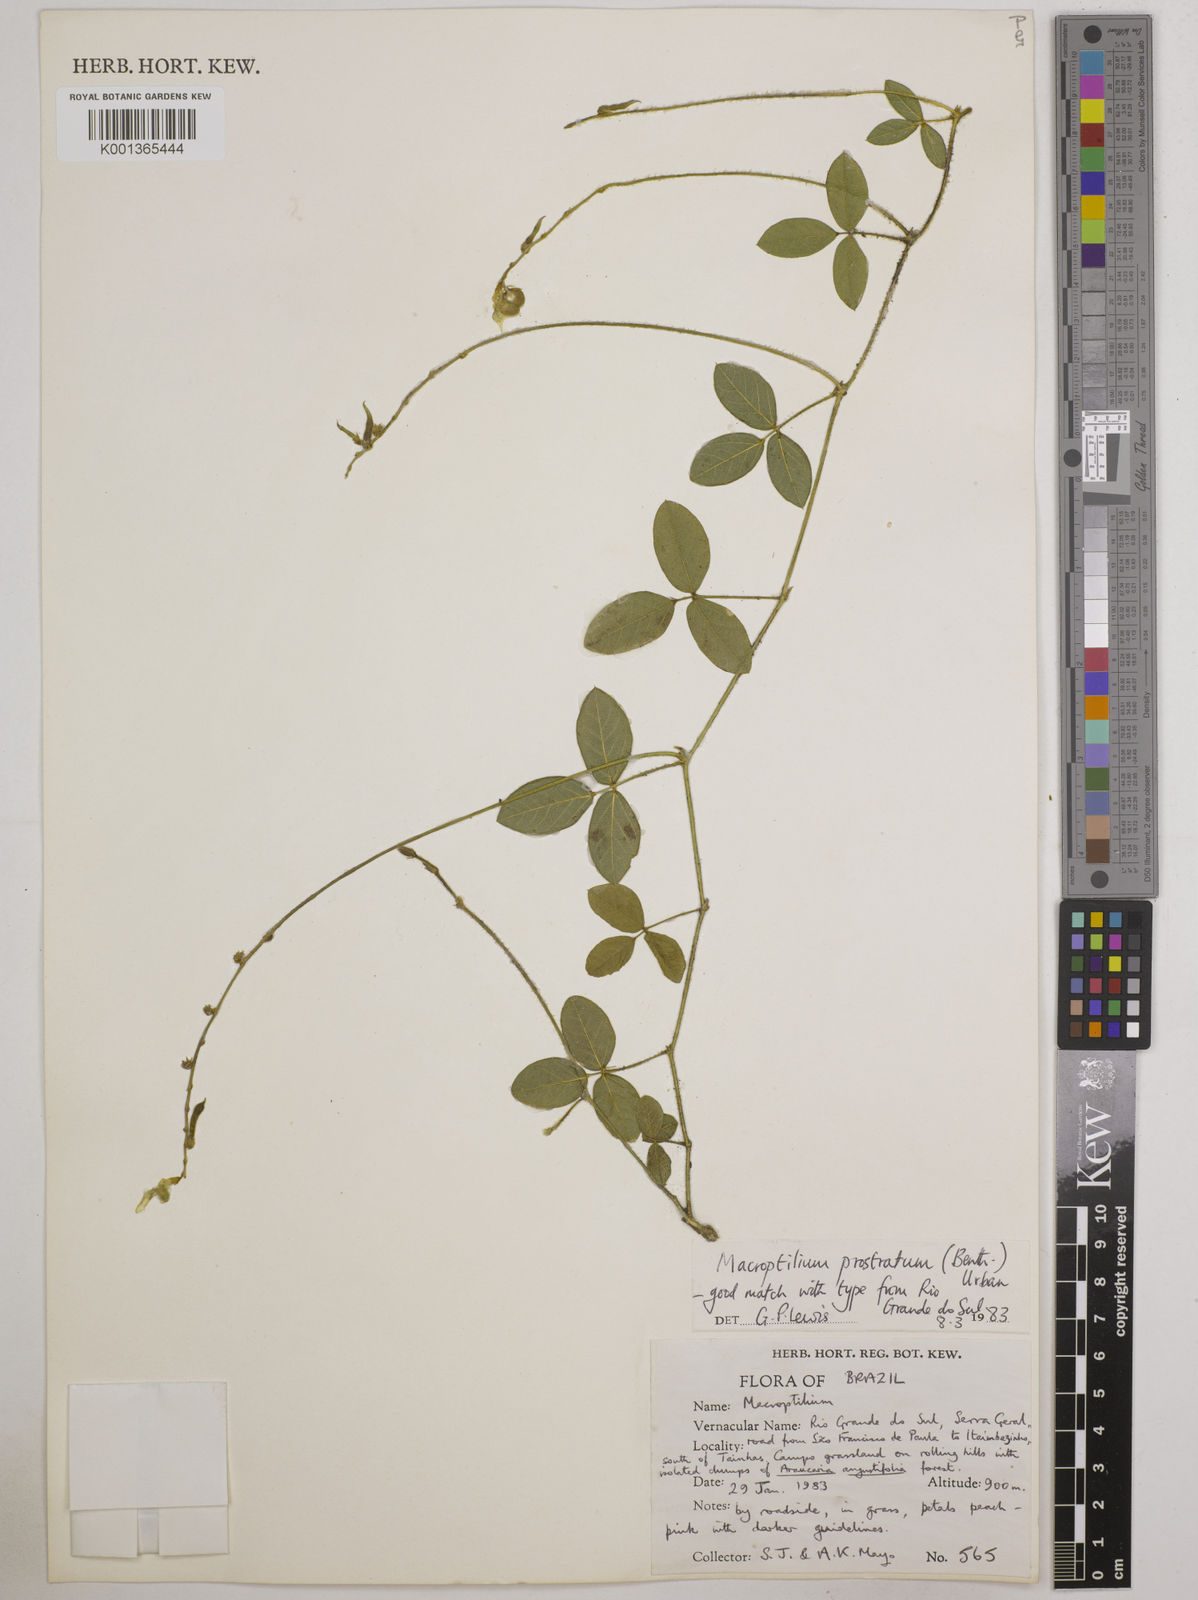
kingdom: Plantae
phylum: Tracheophyta
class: Magnoliopsida
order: Fabales
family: Fabaceae
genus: Macroptilium
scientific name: Macroptilium prostratum
